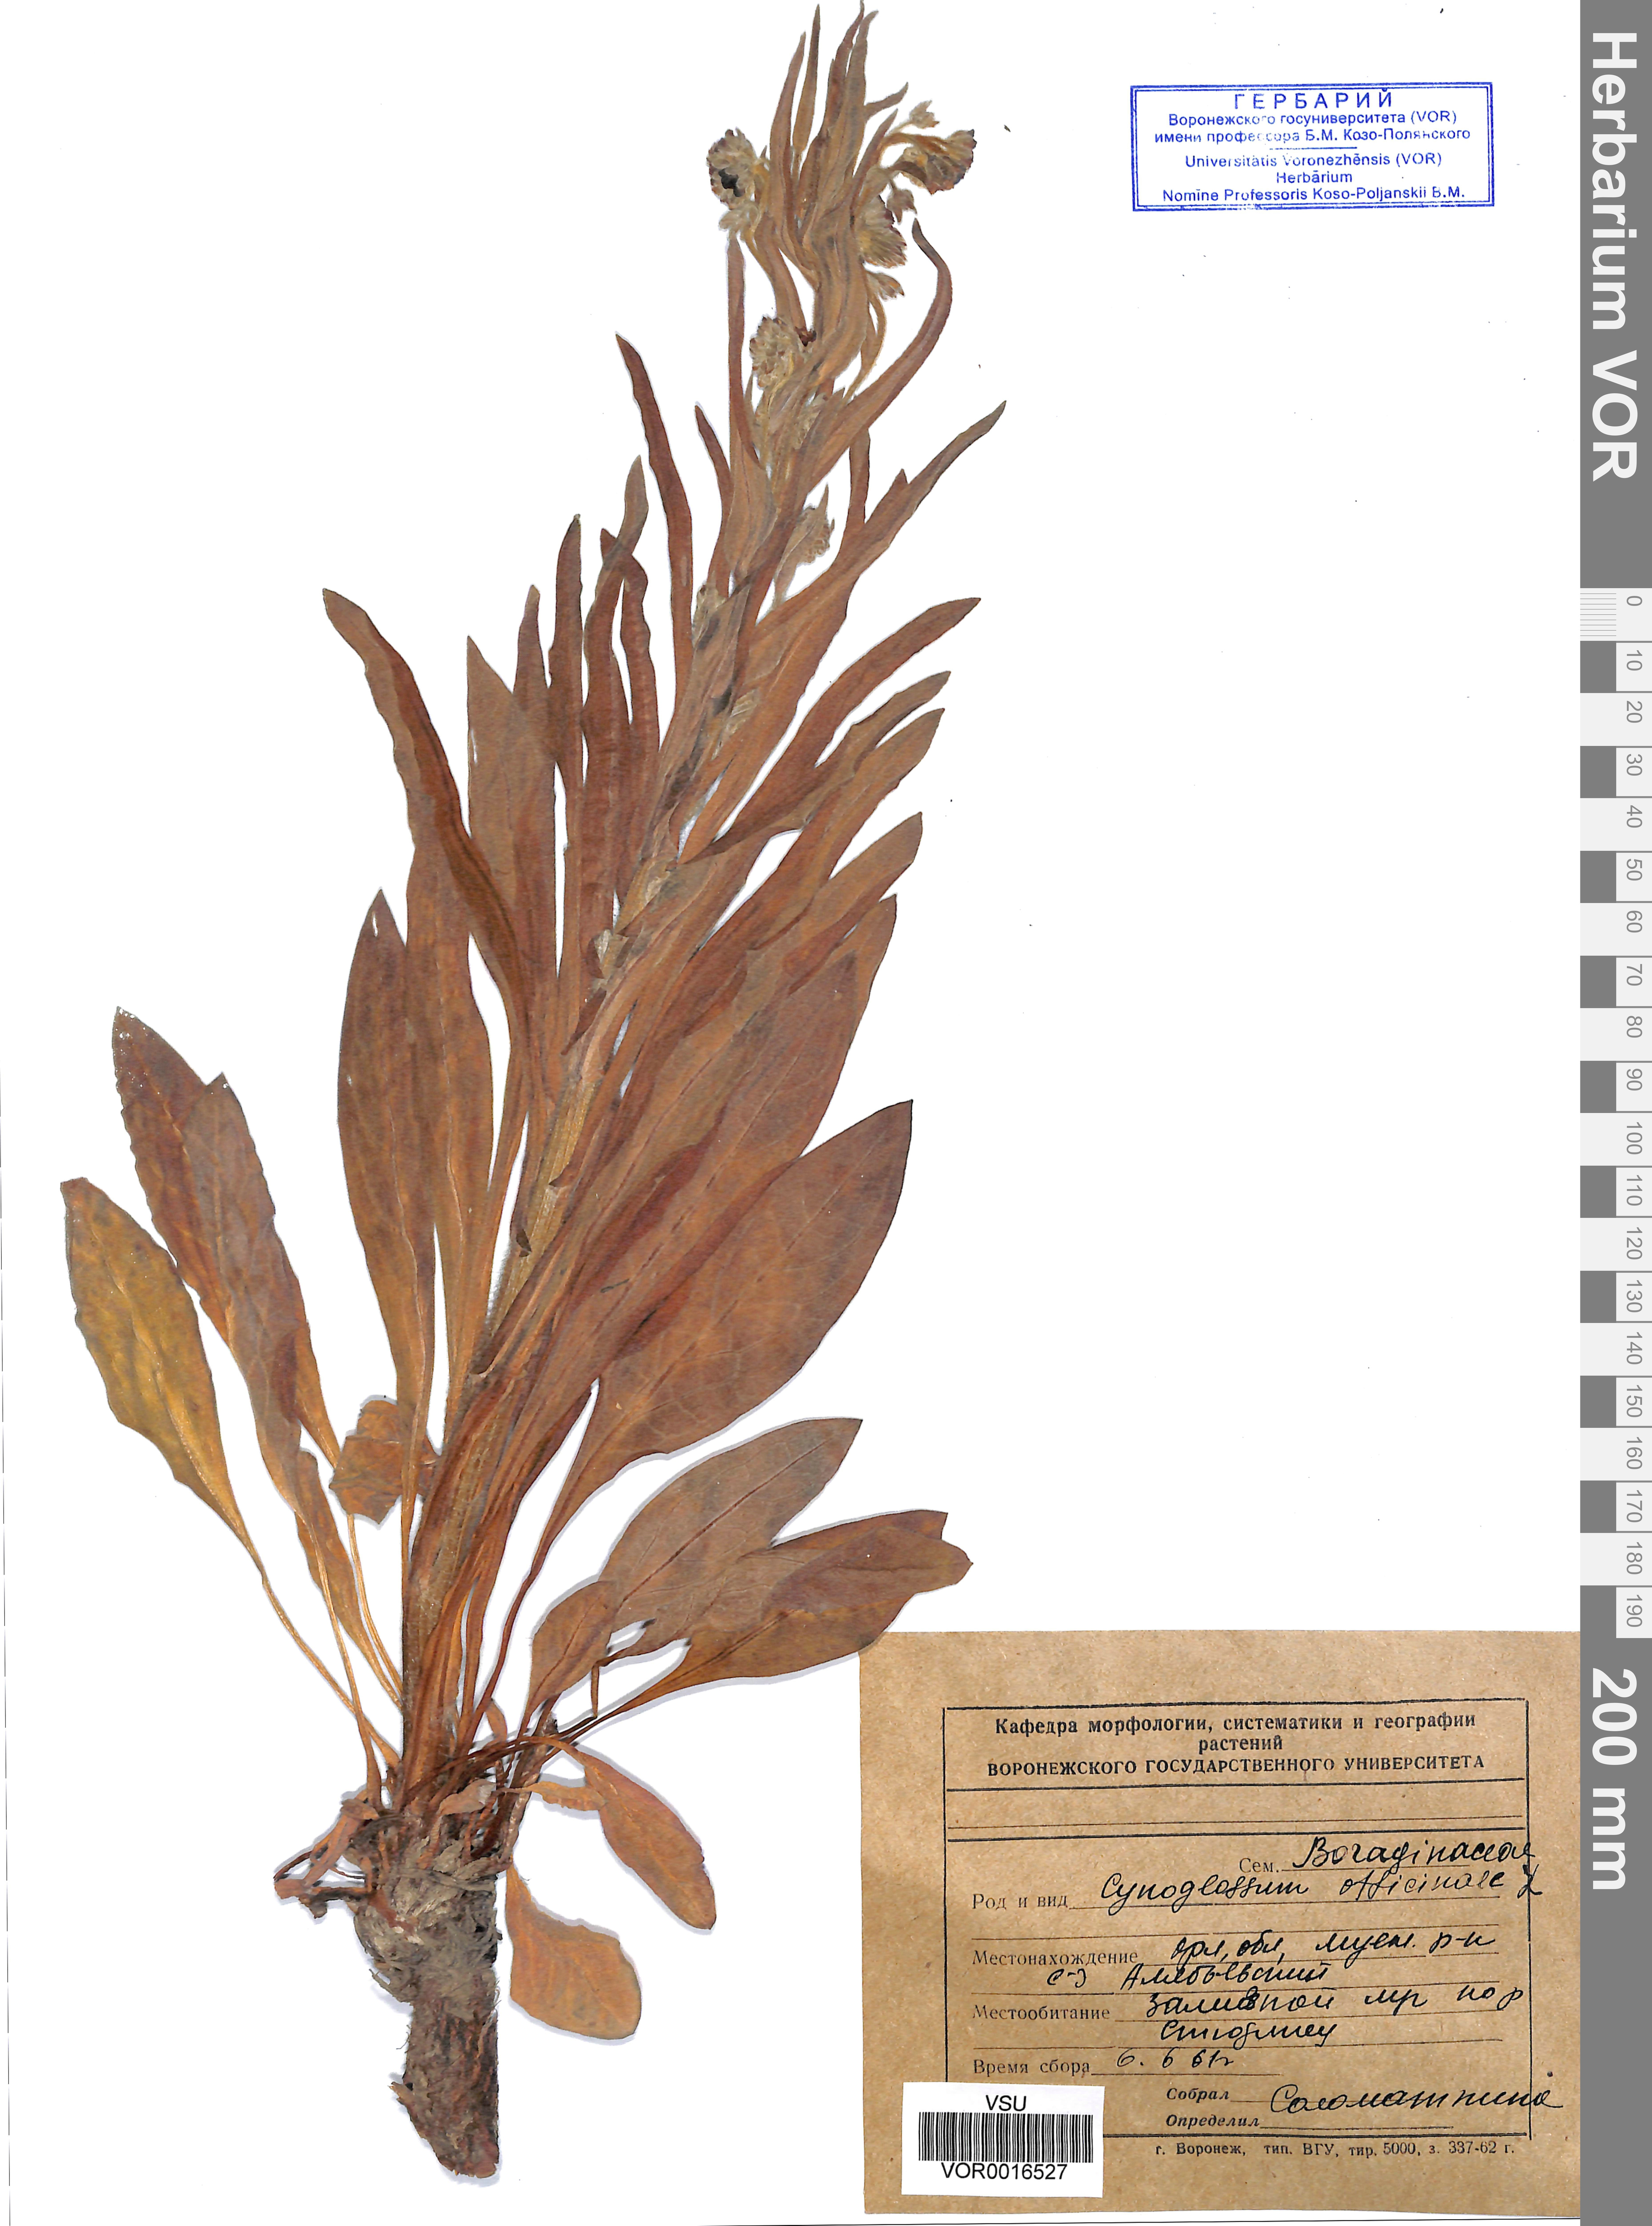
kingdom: Plantae
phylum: Tracheophyta
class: Magnoliopsida
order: Boraginales
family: Boraginaceae
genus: Cynoglossum
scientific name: Cynoglossum officinale
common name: Hound's-tongue
